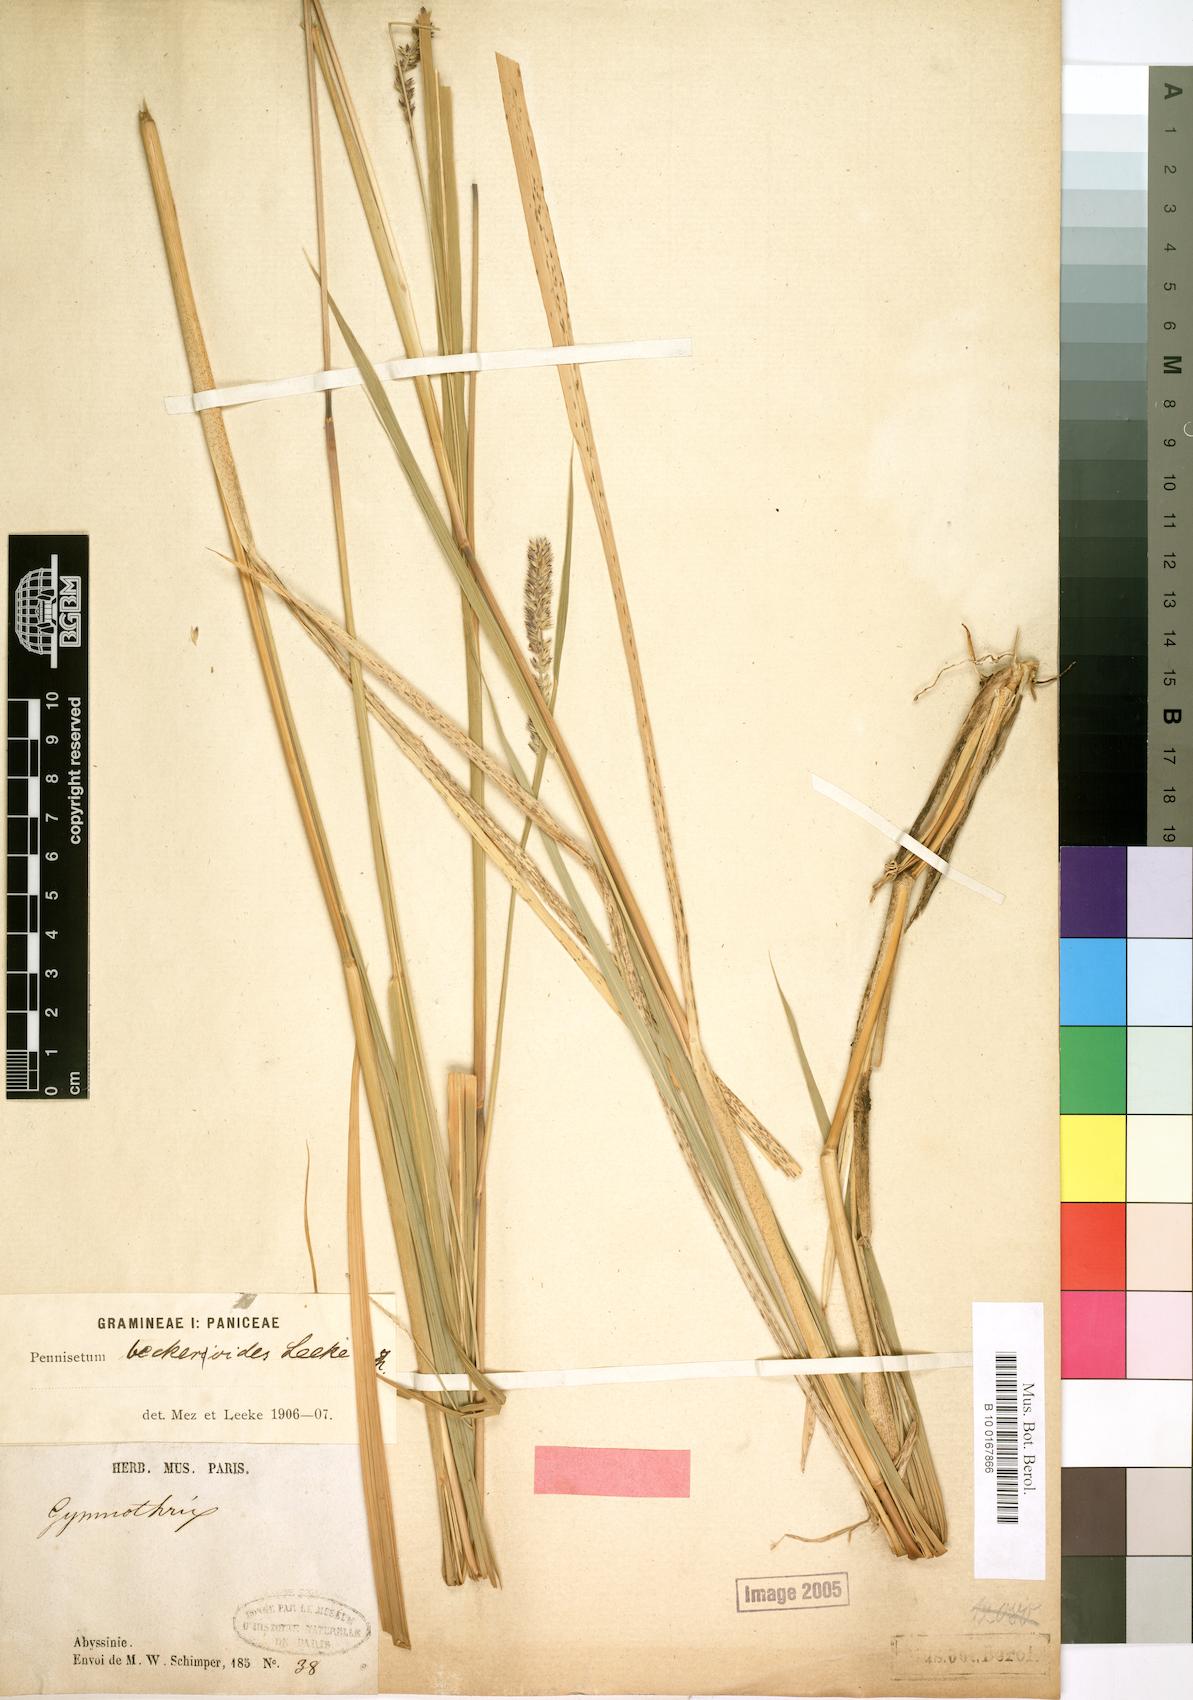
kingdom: Plantae
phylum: Tracheophyta
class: Liliopsida
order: Poales
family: Poaceae
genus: Cenchrus
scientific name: Cenchrus beckeroides
